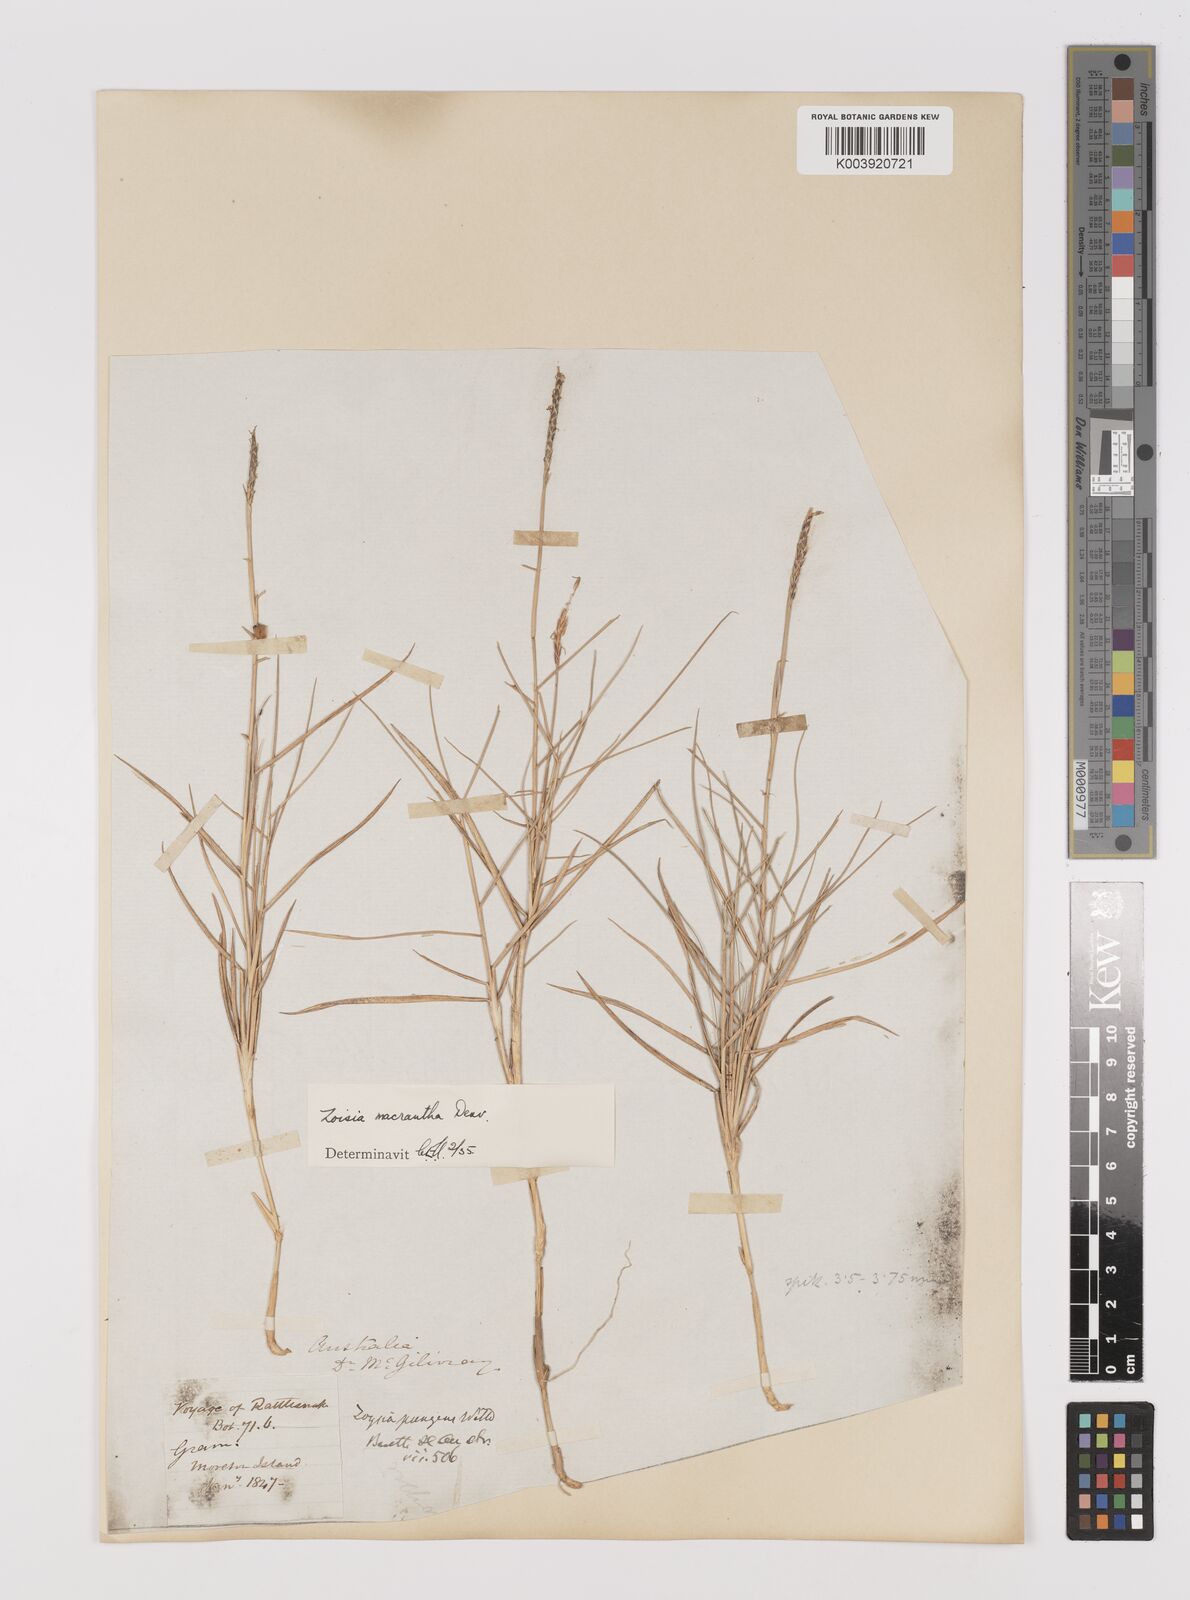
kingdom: Plantae
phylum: Tracheophyta
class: Liliopsida
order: Poales
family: Poaceae
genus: Zoysia
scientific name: Zoysia macrantha
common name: Korean lawn grass
